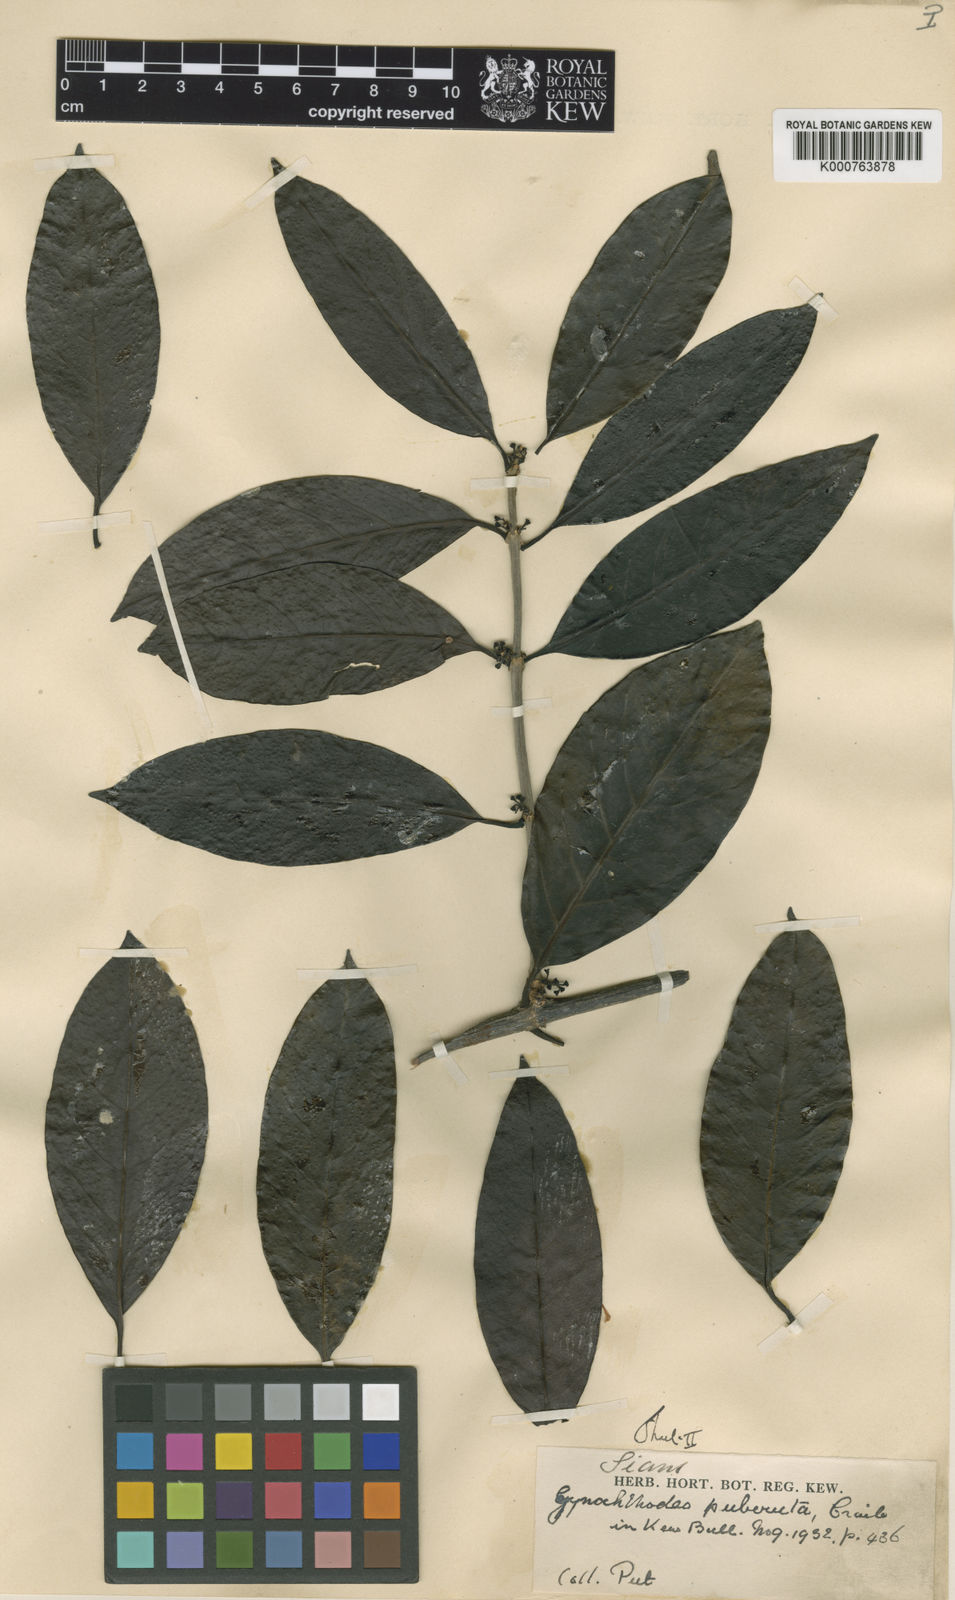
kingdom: Plantae
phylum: Tracheophyta
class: Magnoliopsida
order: Gentianales
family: Rubiaceae
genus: Gynochthodes
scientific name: Gynochthodes puberula
